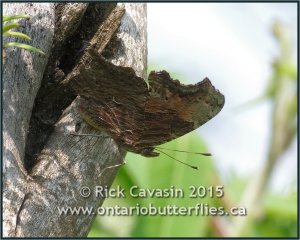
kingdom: Animalia
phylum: Arthropoda
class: Insecta
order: Lepidoptera
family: Nymphalidae
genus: Polygonia
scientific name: Polygonia progne
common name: Gray Comma
